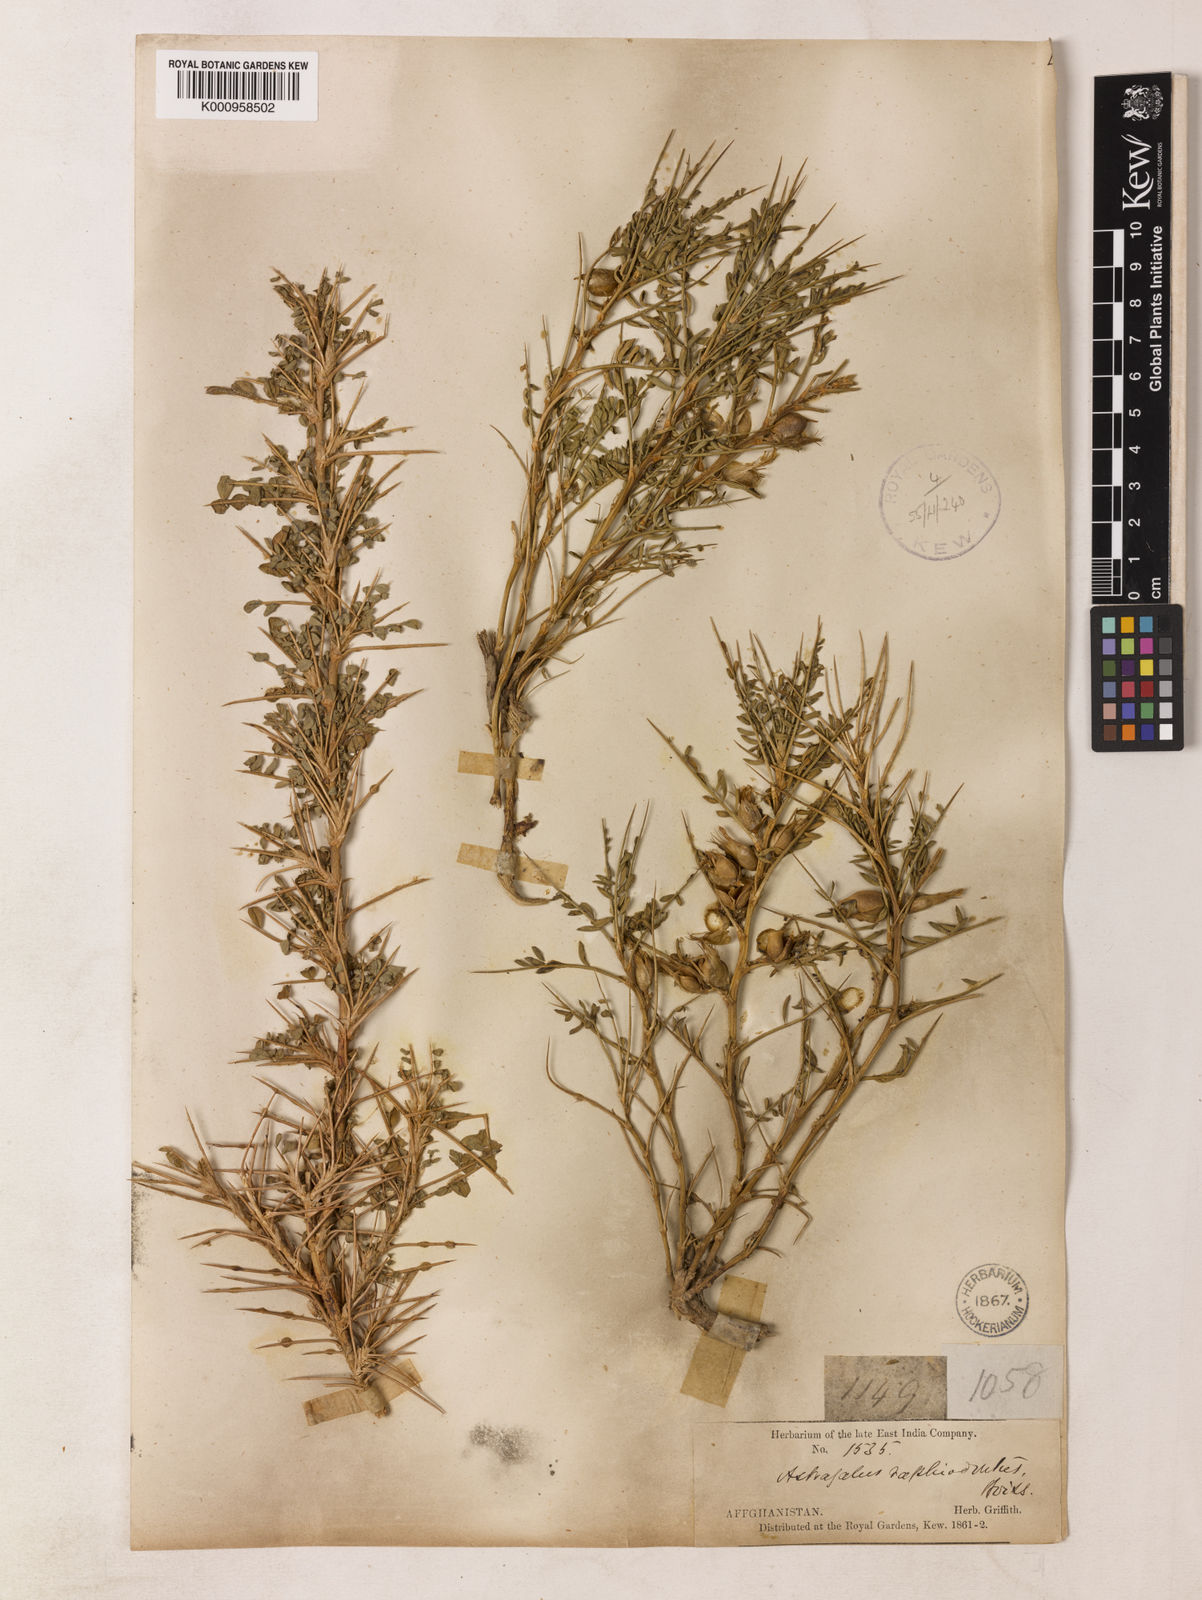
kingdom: Plantae
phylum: Tracheophyta
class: Magnoliopsida
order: Fabales
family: Fabaceae
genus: Astragalus
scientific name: Astragalus raphiodontus
